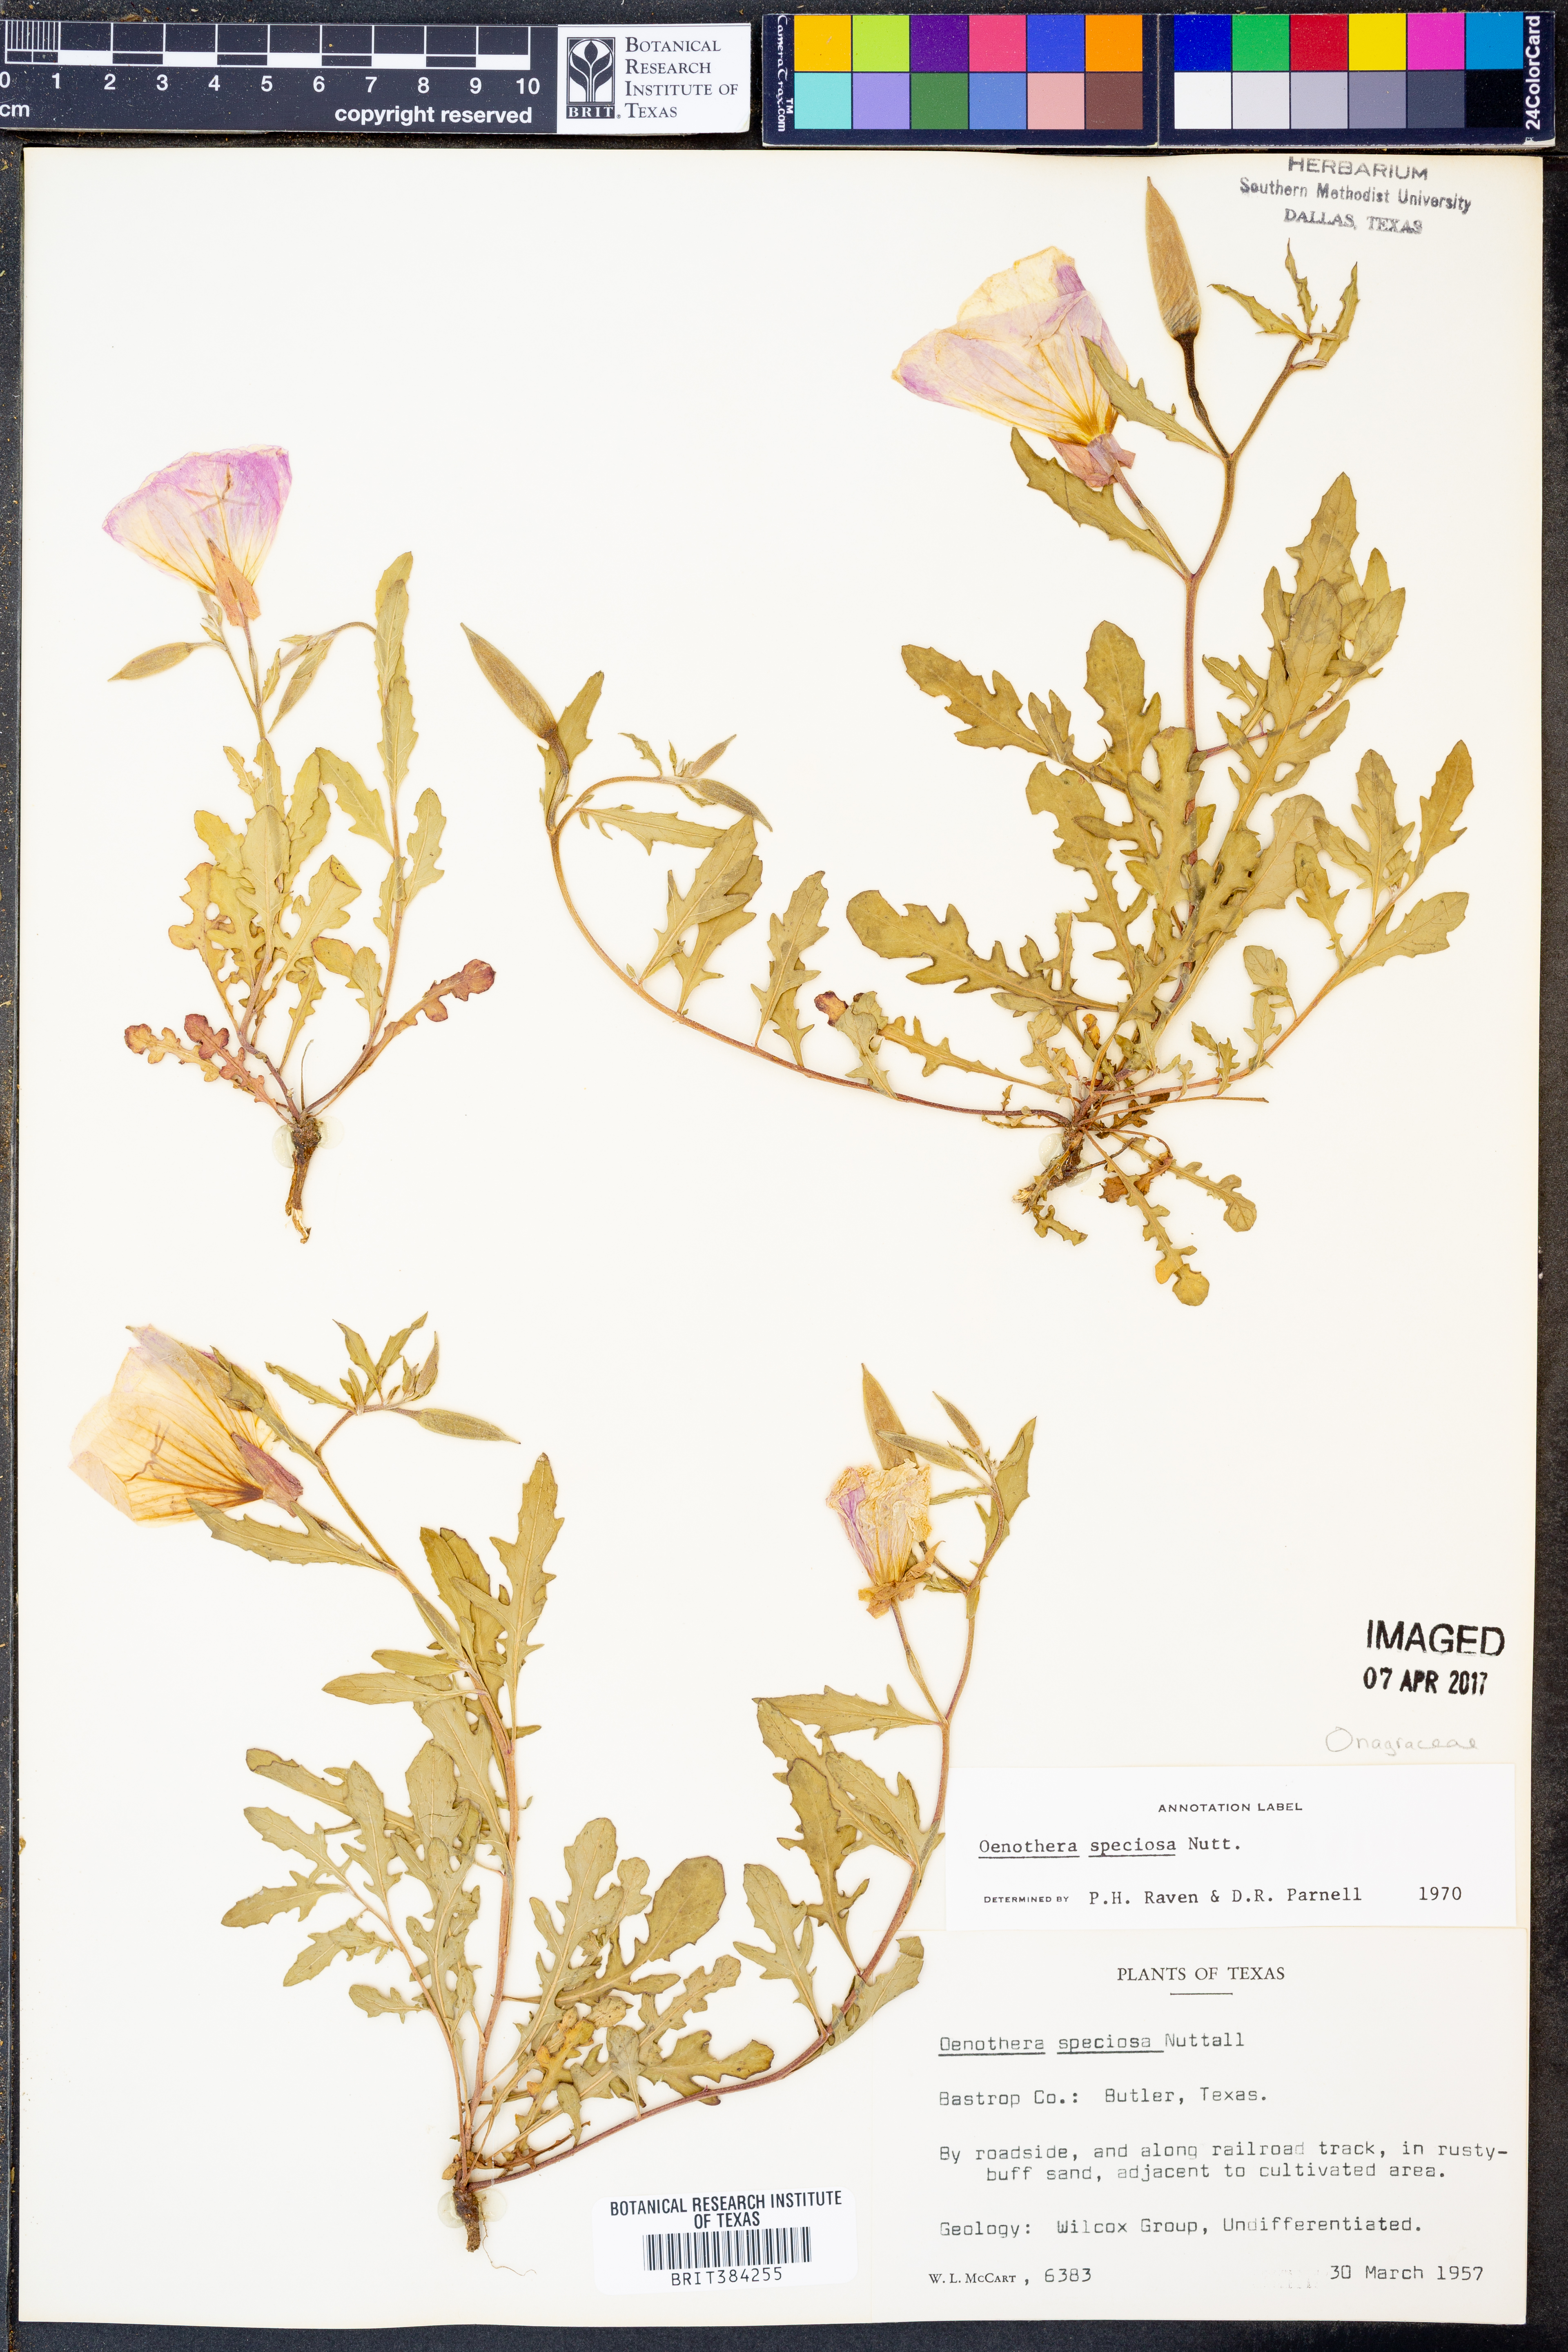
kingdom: Plantae
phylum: Tracheophyta
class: Magnoliopsida
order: Myrtales
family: Onagraceae
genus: Oenothera
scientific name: Oenothera speciosa
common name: White evening-primrose
